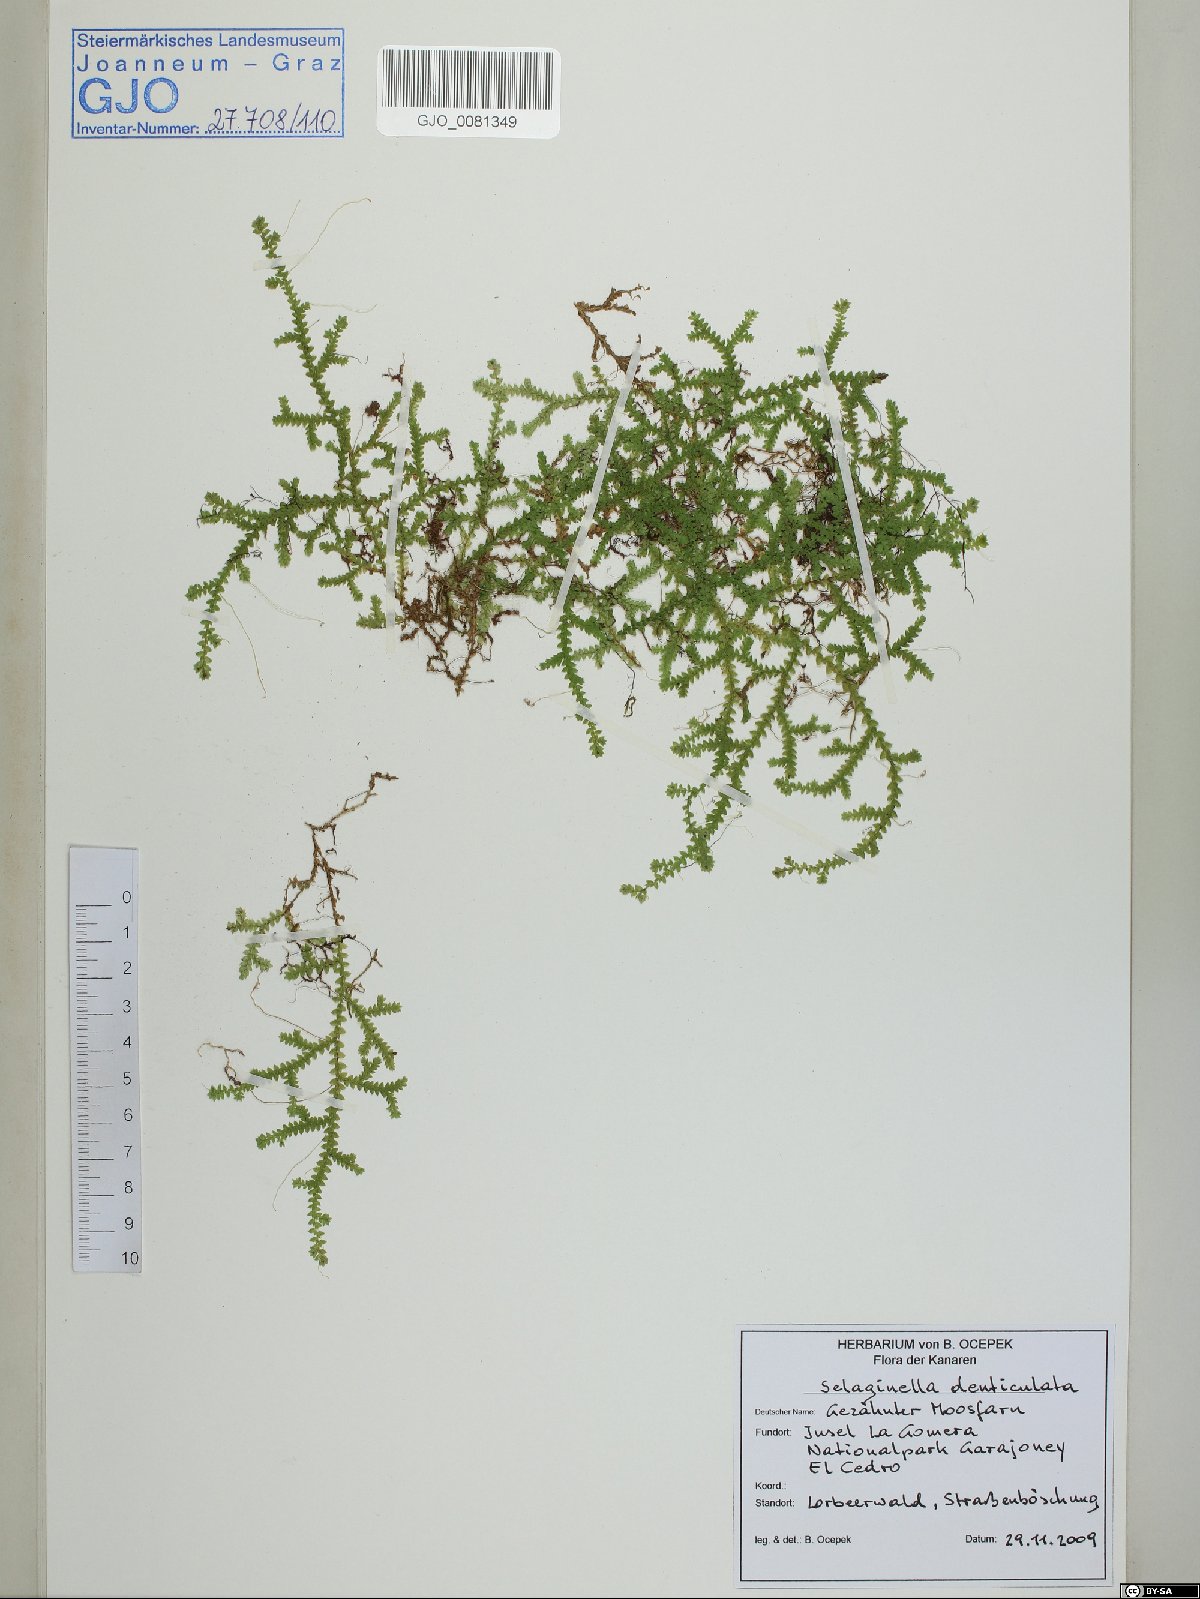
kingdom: Plantae
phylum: Tracheophyta
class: Lycopodiopsida
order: Selaginellales
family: Selaginellaceae
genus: Selaginella
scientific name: Selaginella denticulata
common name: Toothed-leaved clubmoss
